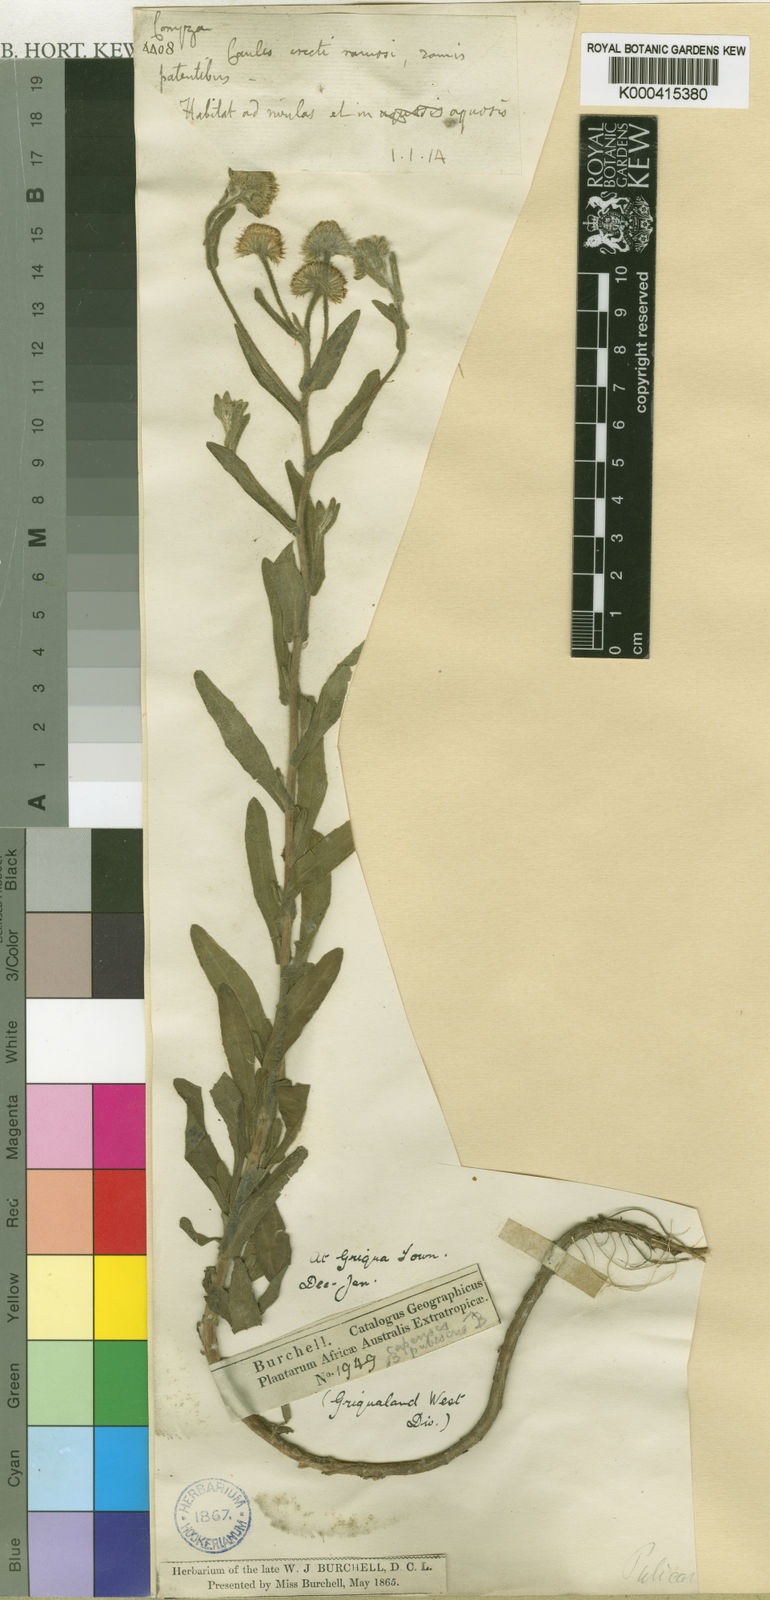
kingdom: Plantae
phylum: Tracheophyta
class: Magnoliopsida
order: Asterales
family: Asteraceae
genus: Pulicaria
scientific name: Pulicaria scabra
